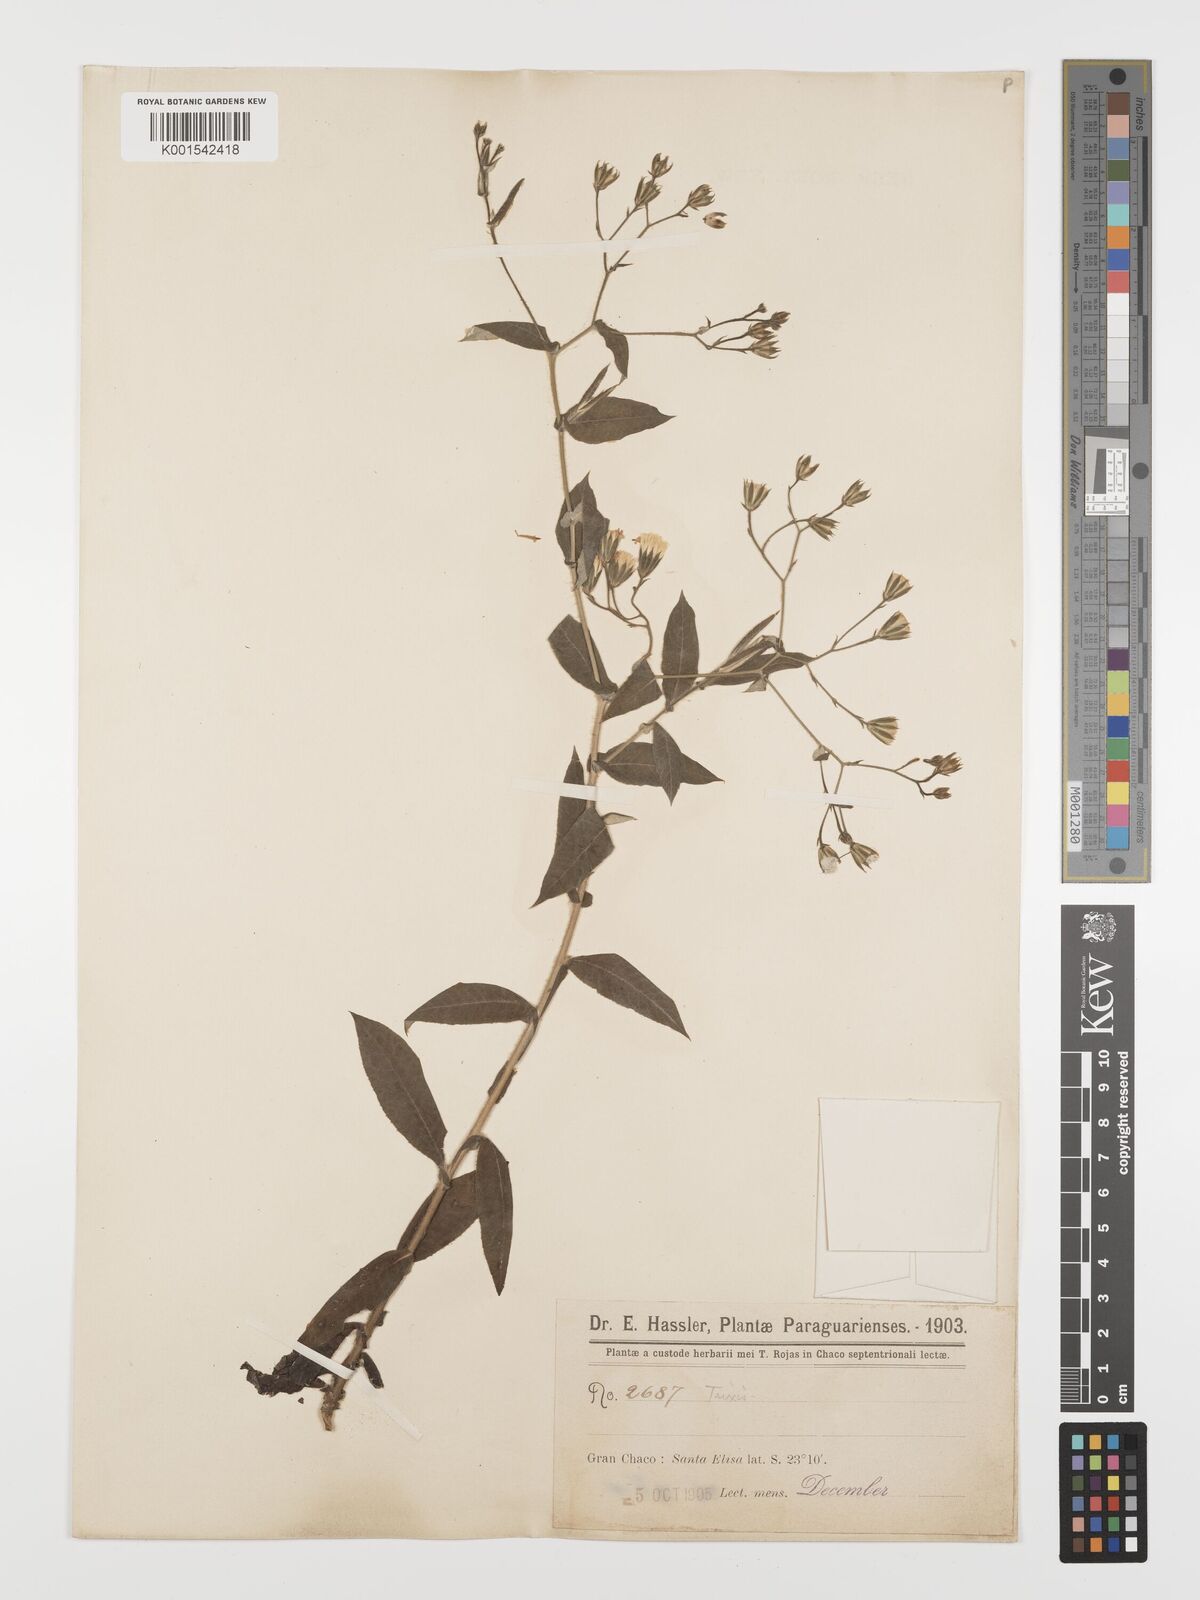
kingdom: Plantae
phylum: Tracheophyta
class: Magnoliopsida
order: Asterales
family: Asteraceae
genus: Trixis
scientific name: Trixis divaricata
